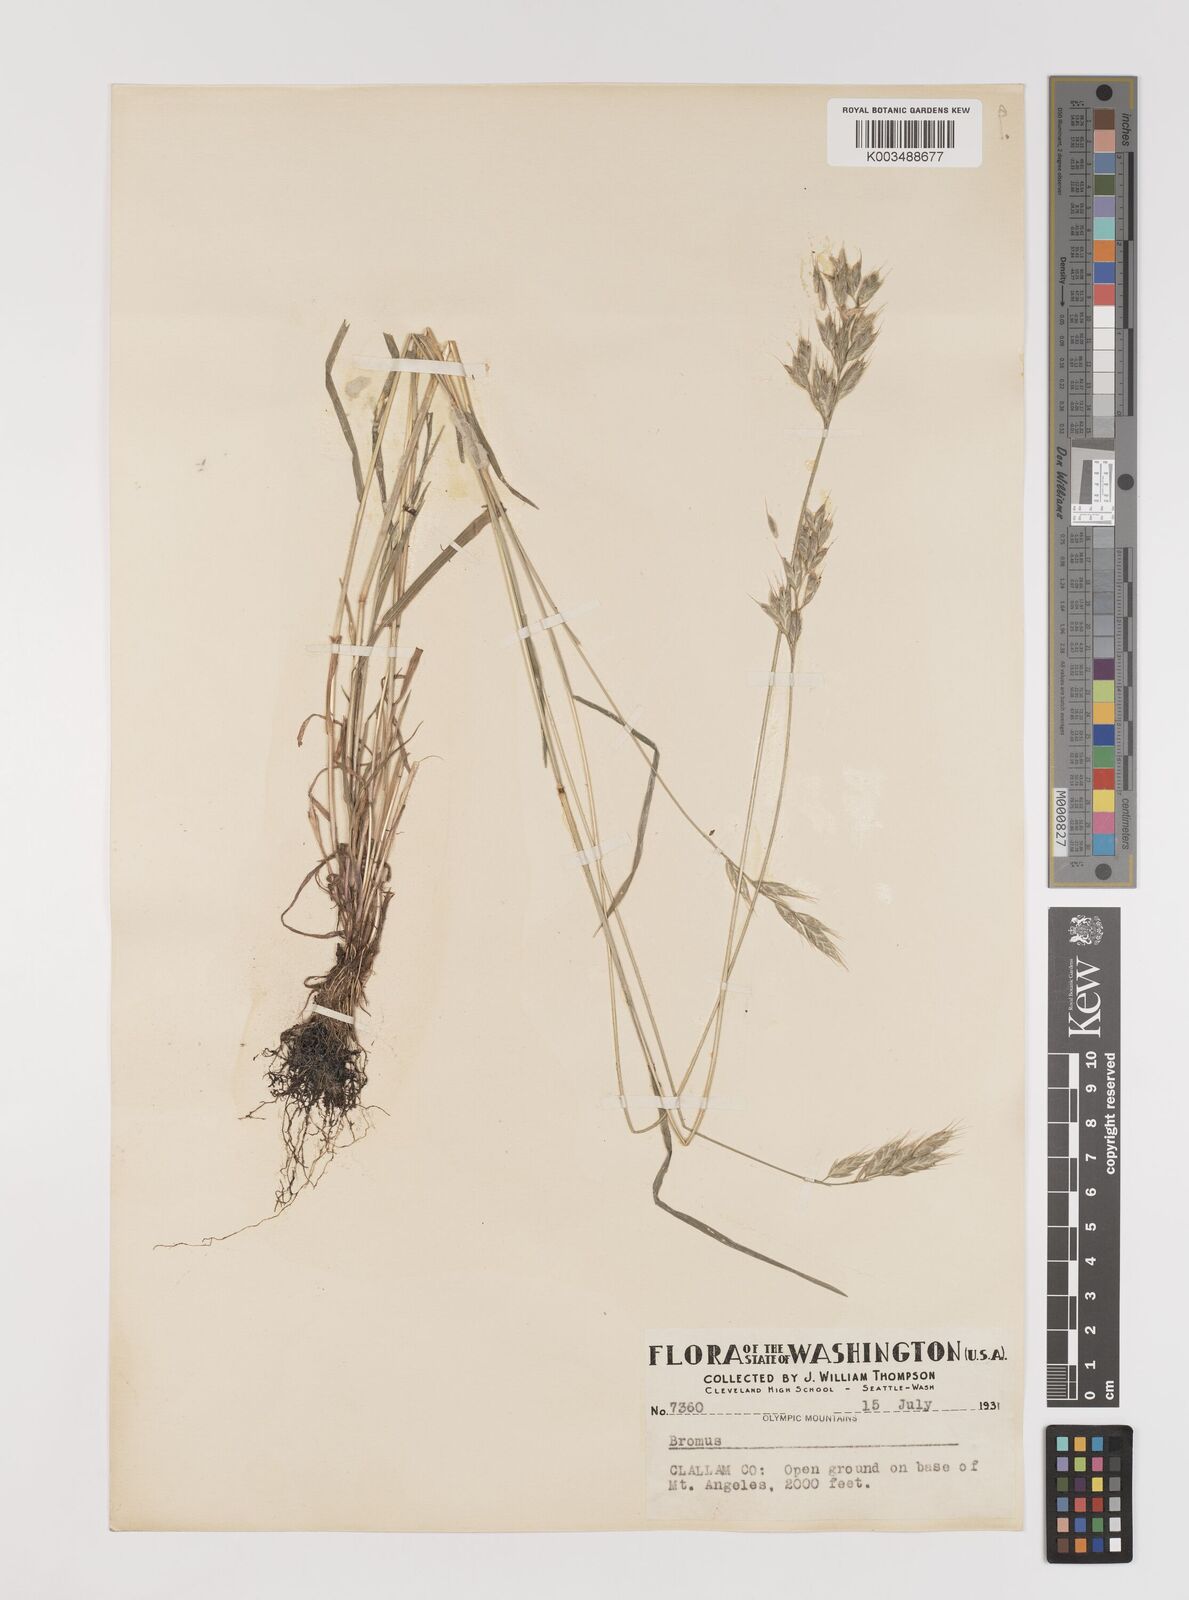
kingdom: Plantae
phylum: Tracheophyta
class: Liliopsida
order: Poales
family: Poaceae
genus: Bromus
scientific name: Bromus hordeaceus
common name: Soft brome
